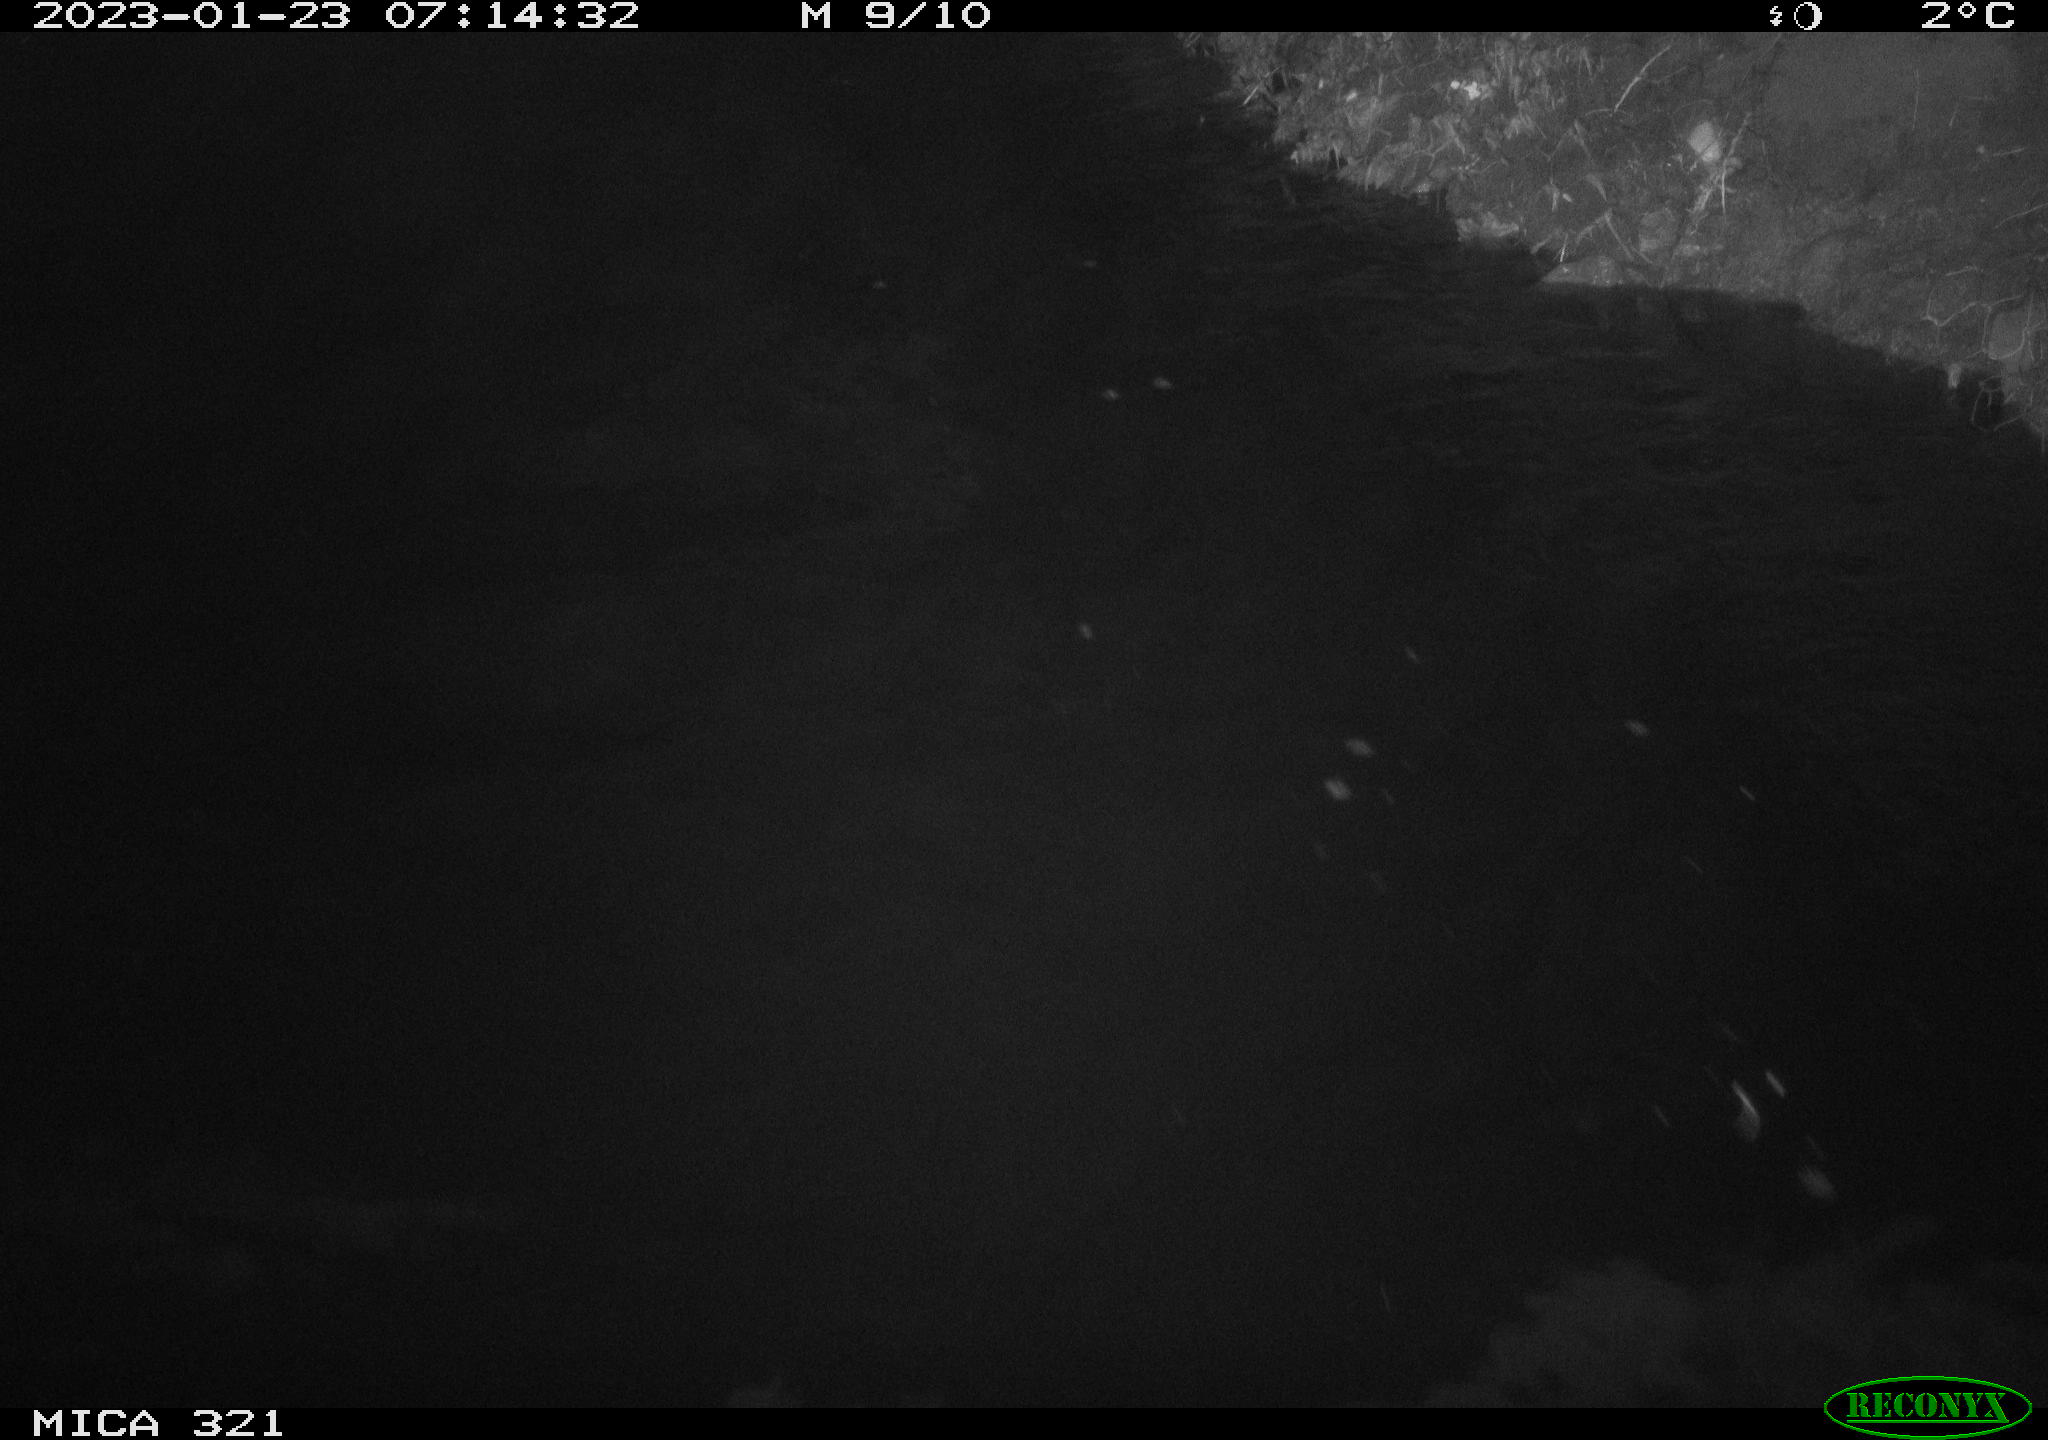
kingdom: Animalia
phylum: Chordata
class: Mammalia
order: Rodentia
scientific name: Rodentia
